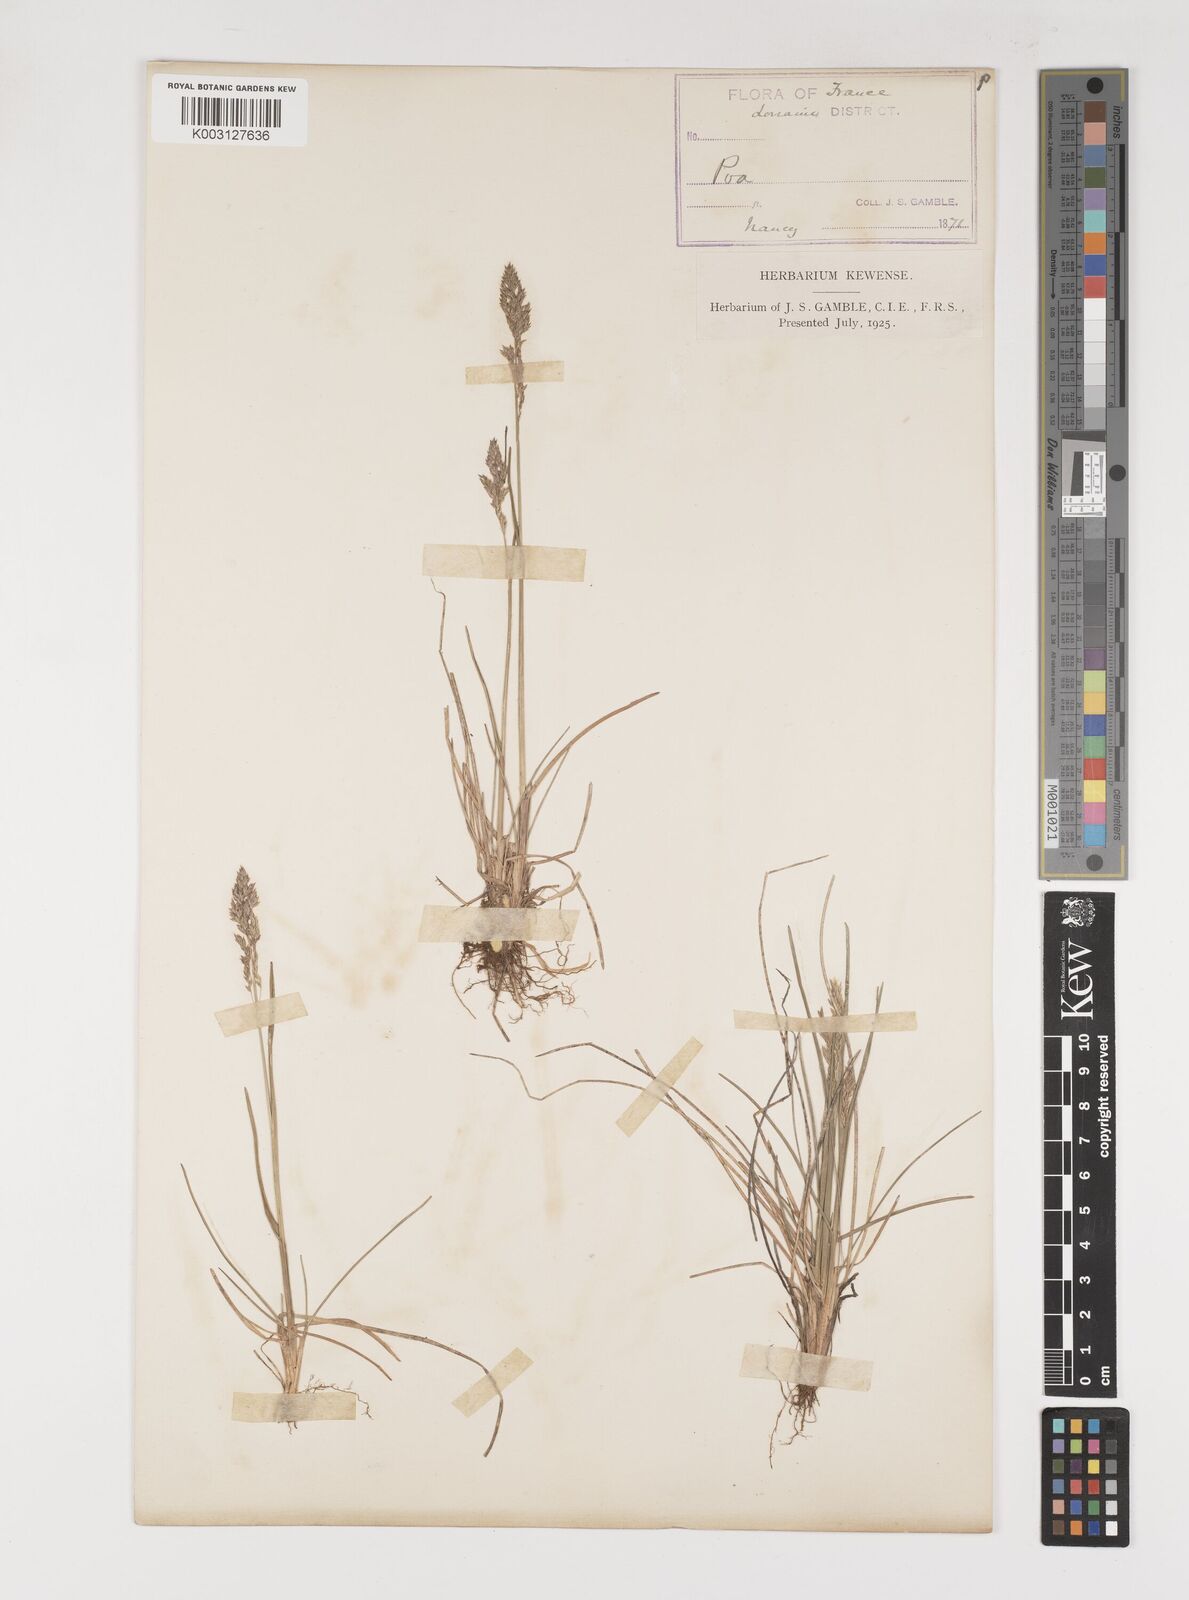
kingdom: Plantae
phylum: Tracheophyta
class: Liliopsida
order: Poales
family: Poaceae
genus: Poa
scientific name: Poa
